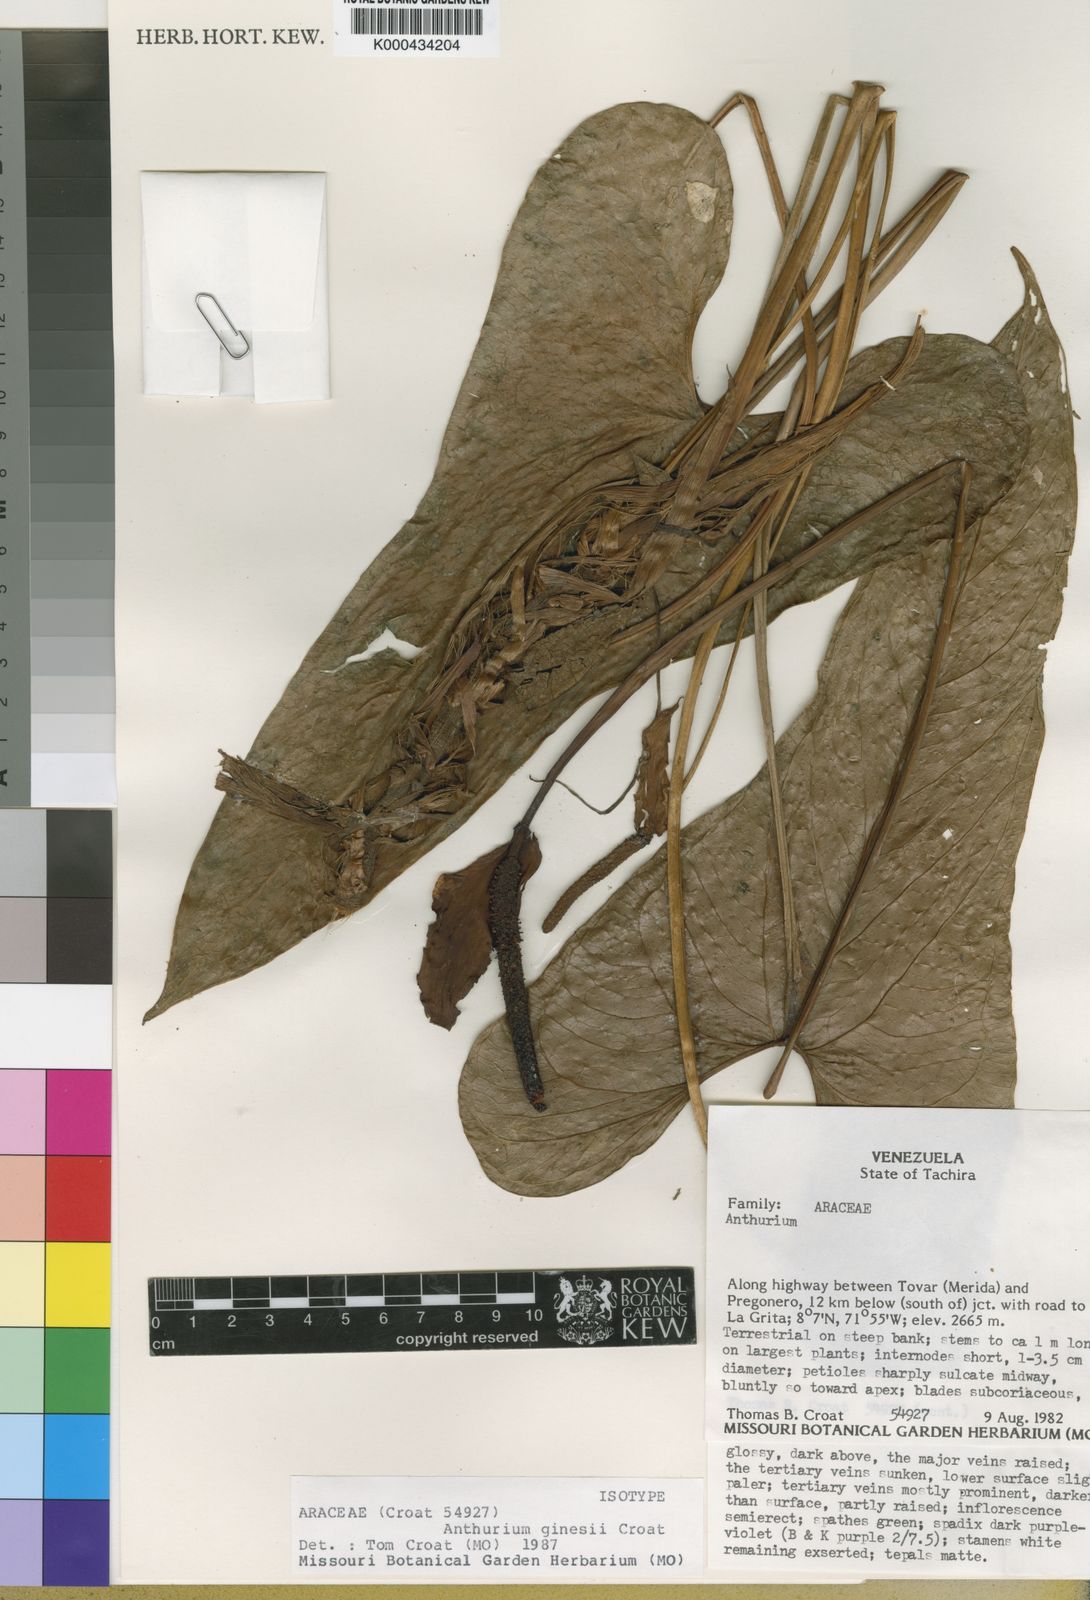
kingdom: Plantae
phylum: Tracheophyta
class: Liliopsida
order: Alismatales
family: Araceae
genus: Anthurium
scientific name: Anthurium ginesii
